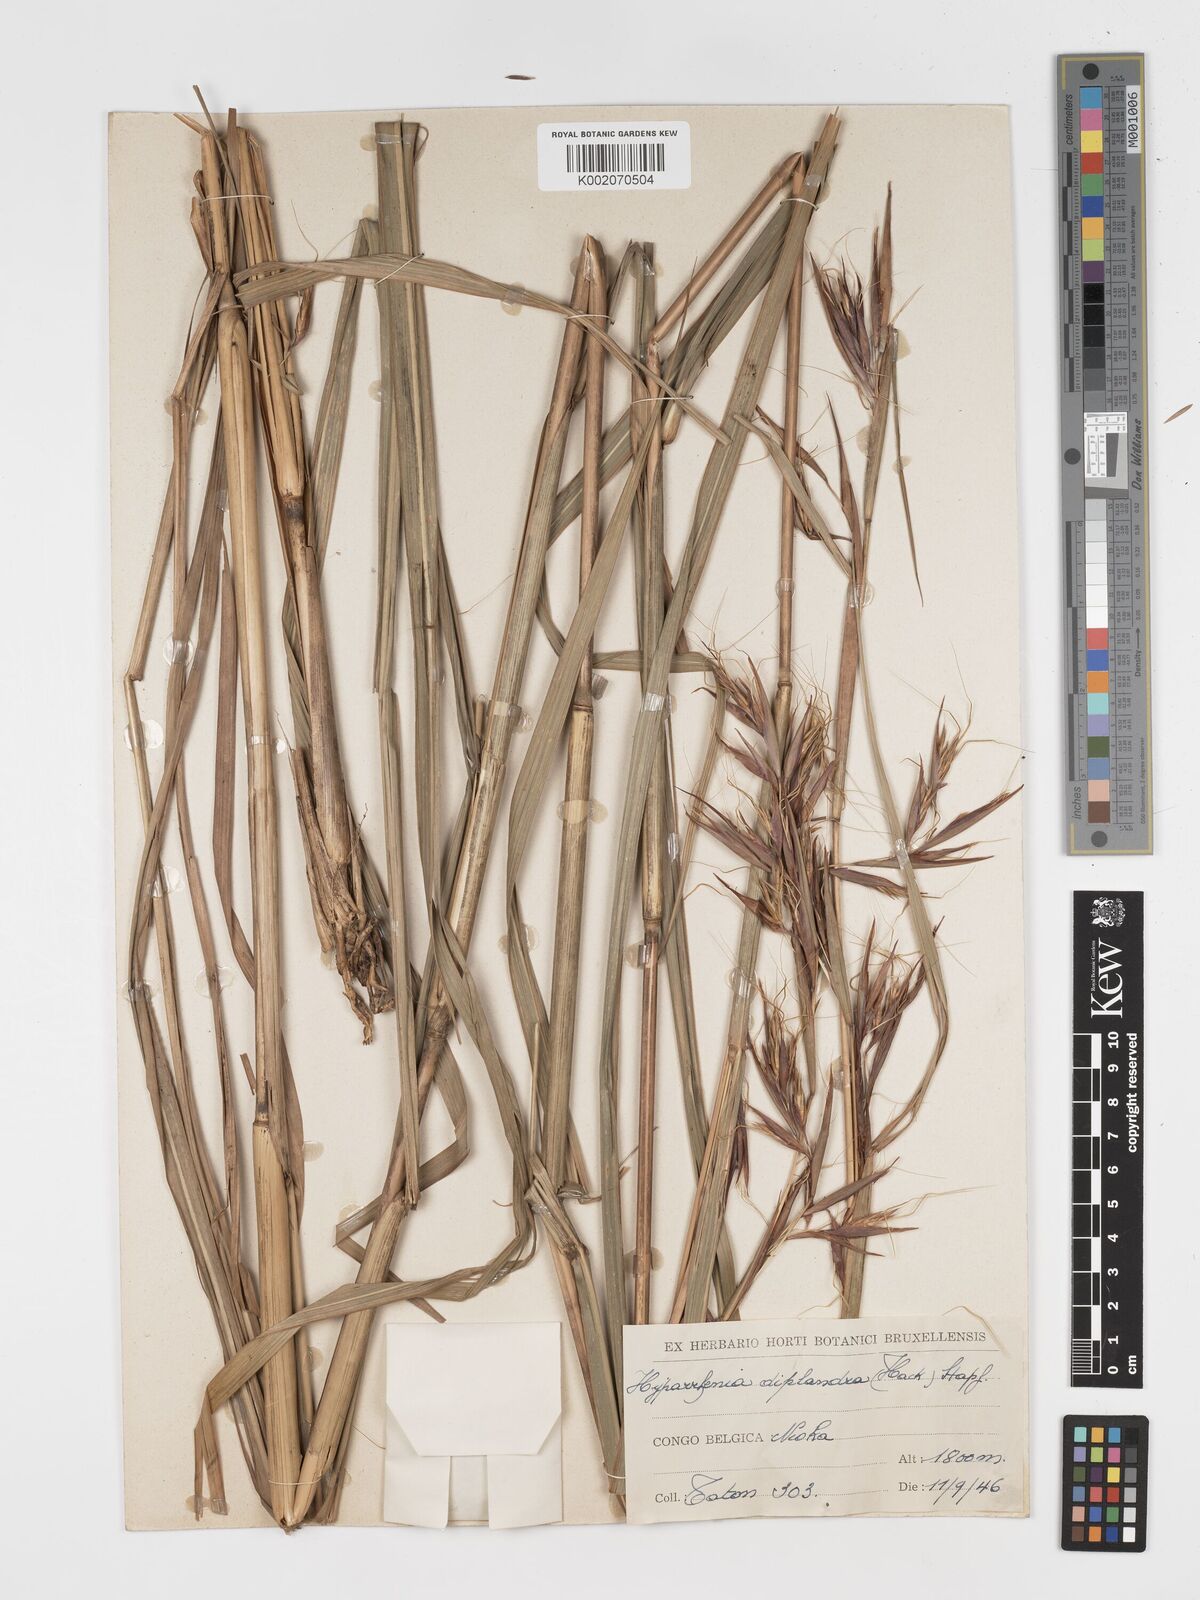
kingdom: Plantae
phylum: Tracheophyta
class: Liliopsida
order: Poales
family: Poaceae
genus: Hyparrhenia
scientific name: Hyparrhenia diplandra
